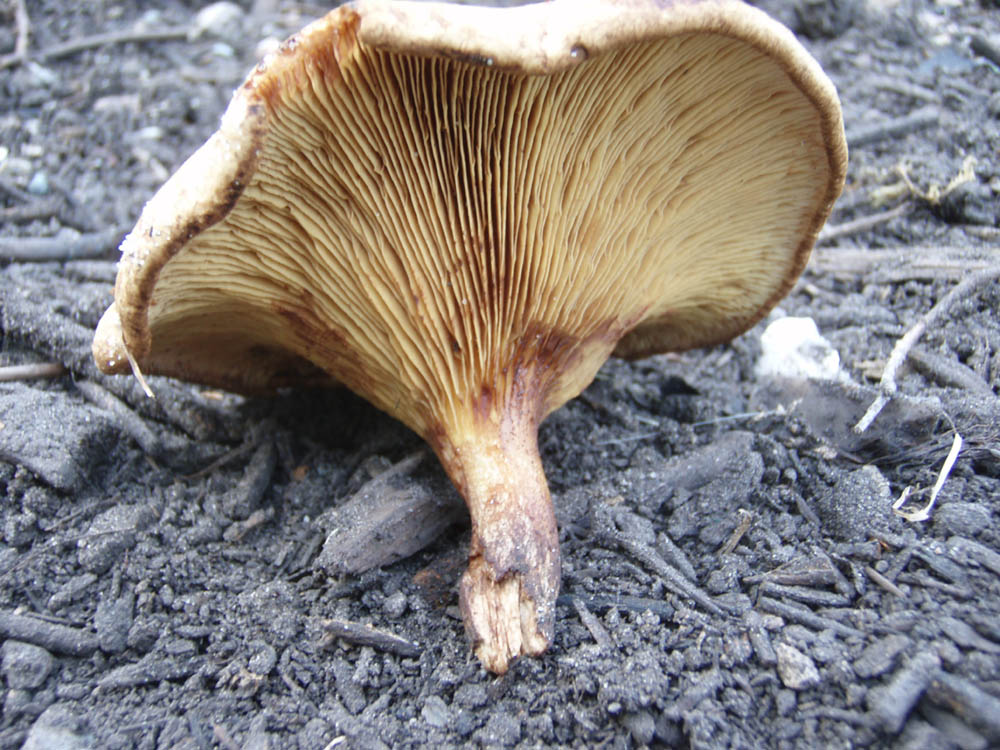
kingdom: Fungi
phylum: Basidiomycota
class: Agaricomycetes
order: Boletales
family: Paxillaceae
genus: Paxillus
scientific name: Paxillus involutus
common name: almindelig netbladhat
